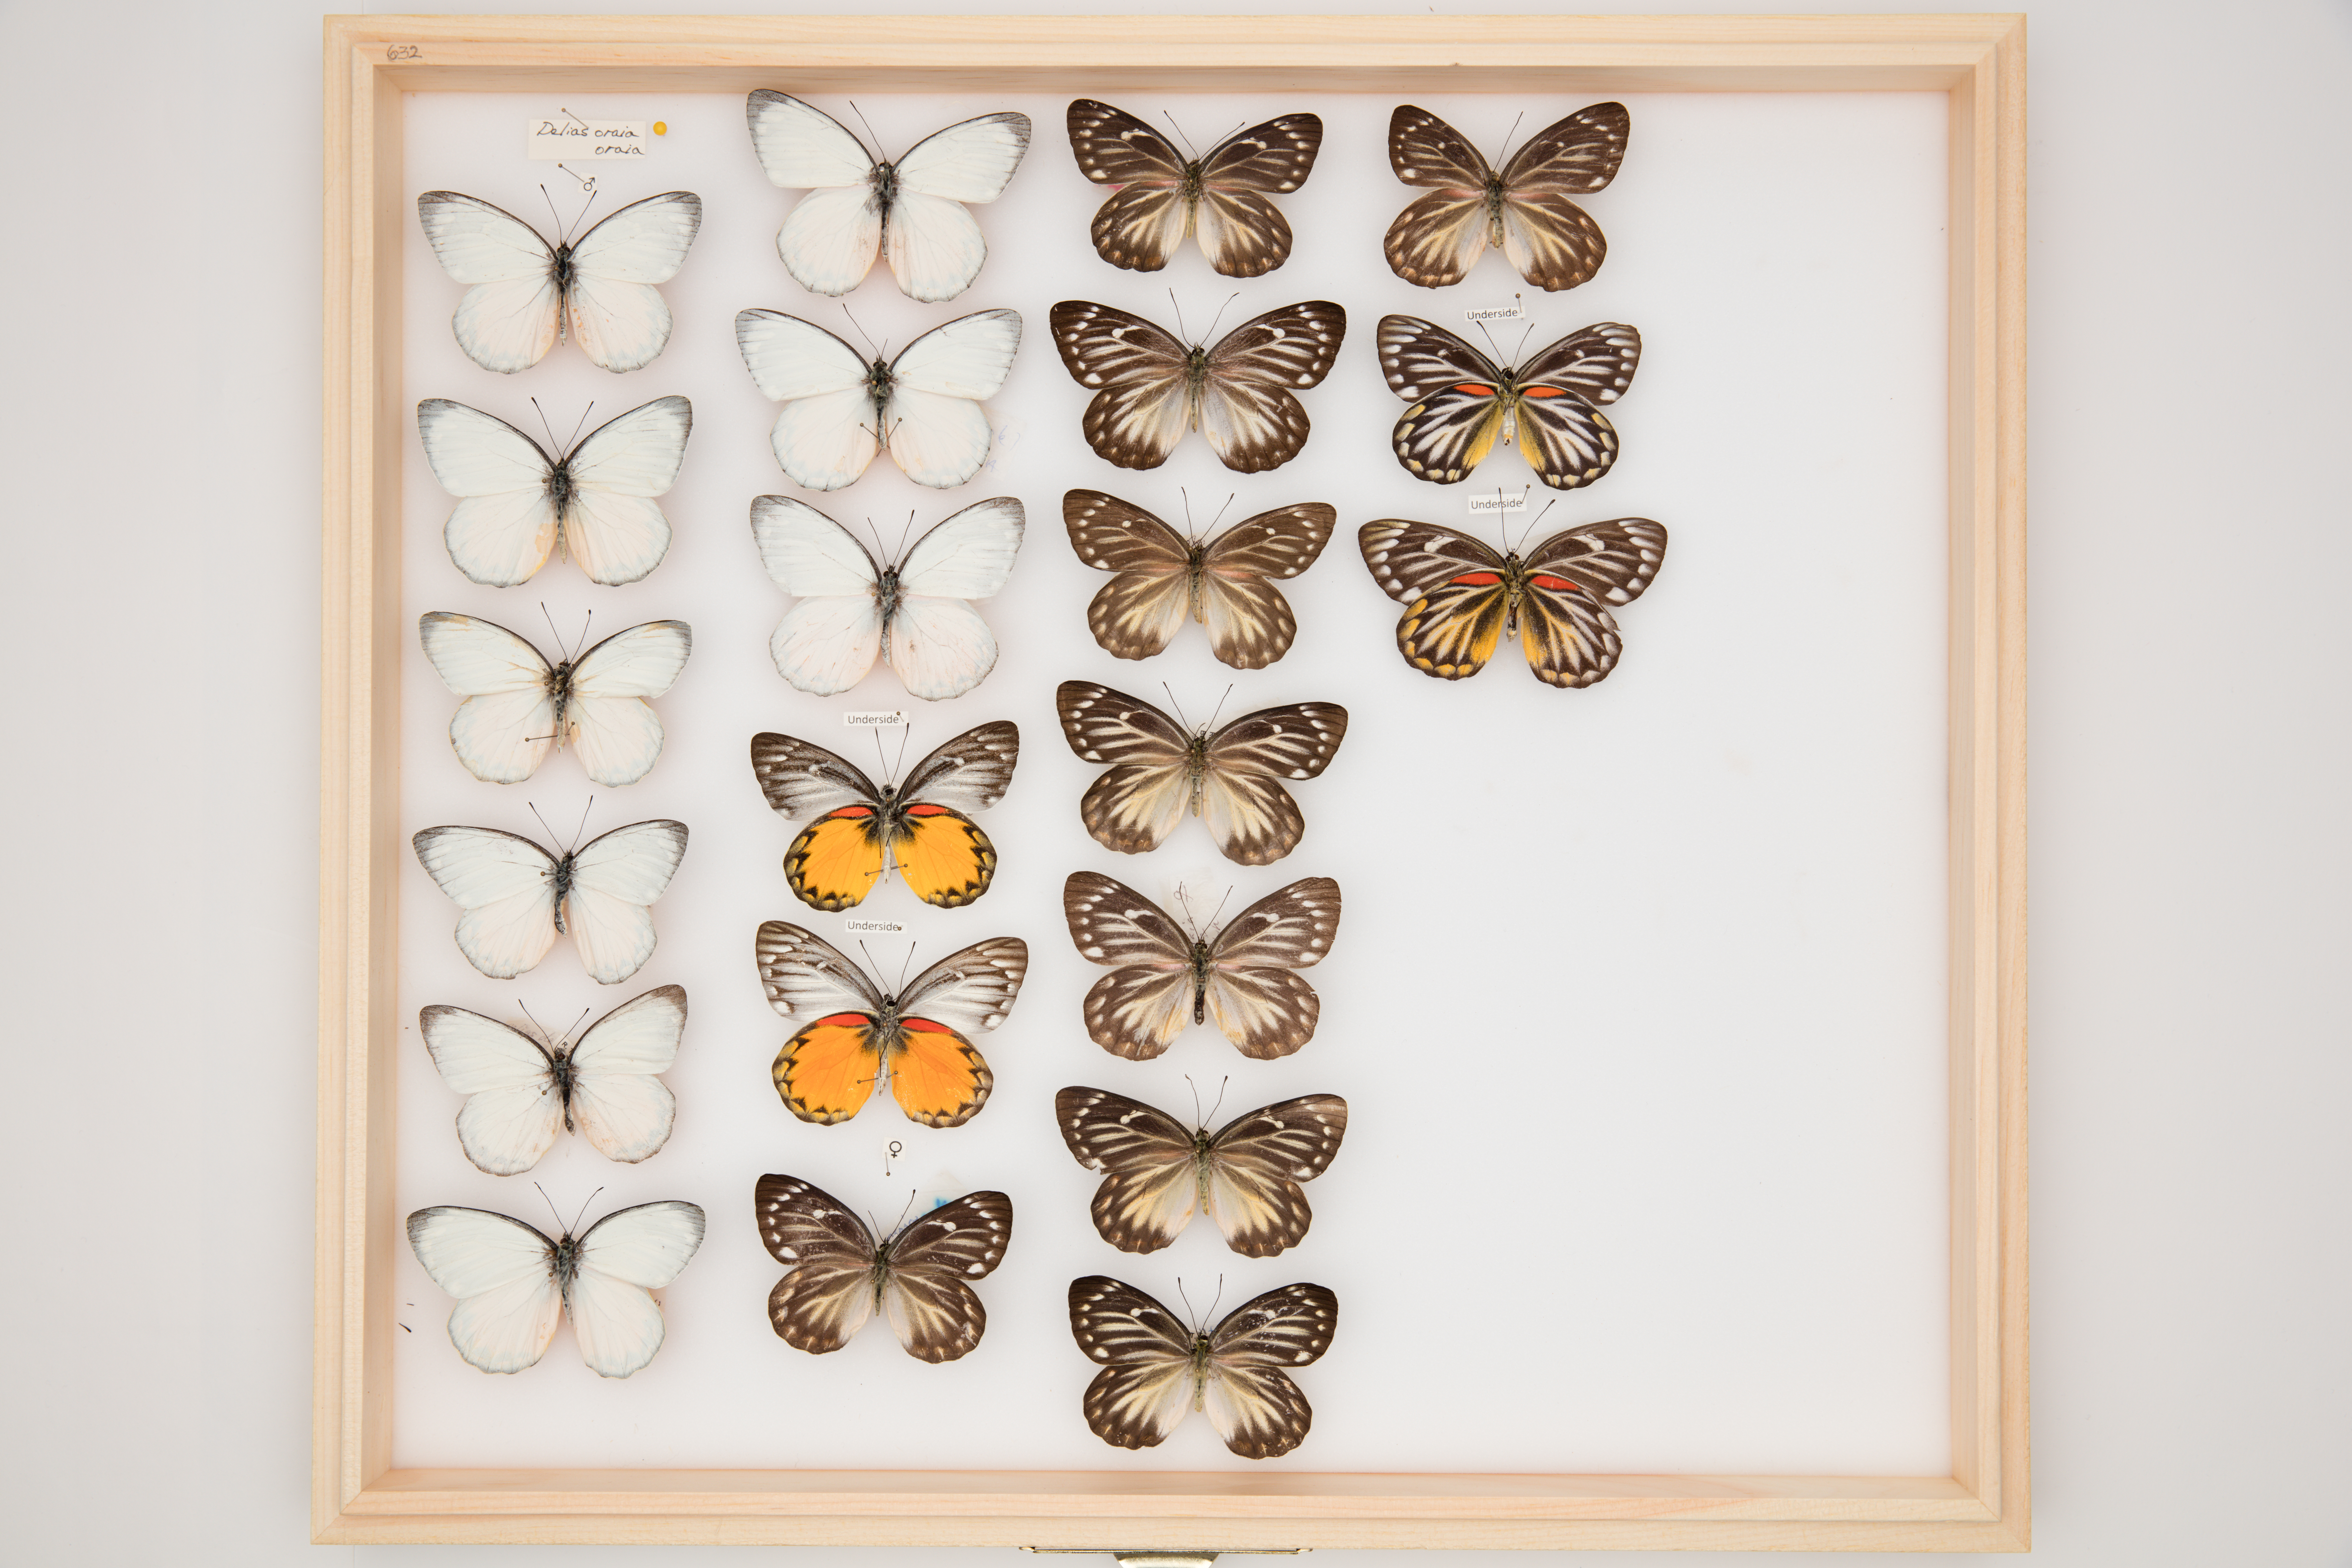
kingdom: Animalia
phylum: Arthropoda
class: Insecta
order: Lepidoptera
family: Pieridae
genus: Delias
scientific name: Delias oraia
